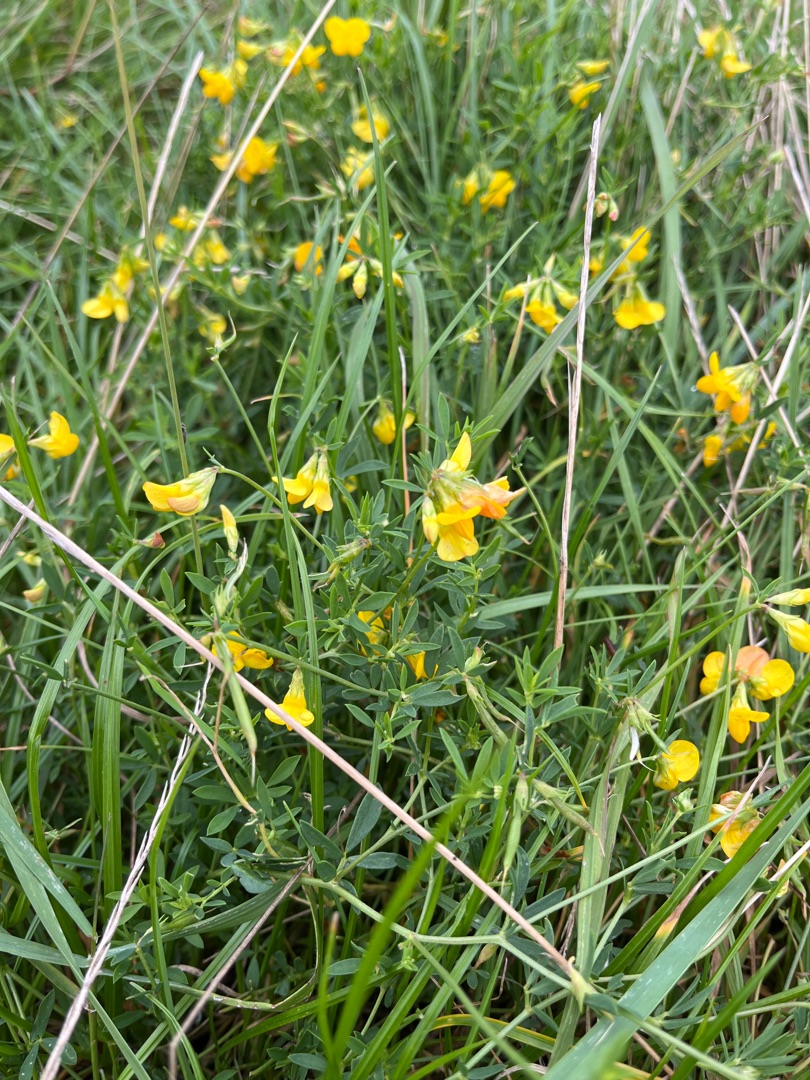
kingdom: Plantae
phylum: Tracheophyta
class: Magnoliopsida
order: Fabales
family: Fabaceae
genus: Lotus
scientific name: Lotus corniculatus
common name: Almindelig kællingetand
